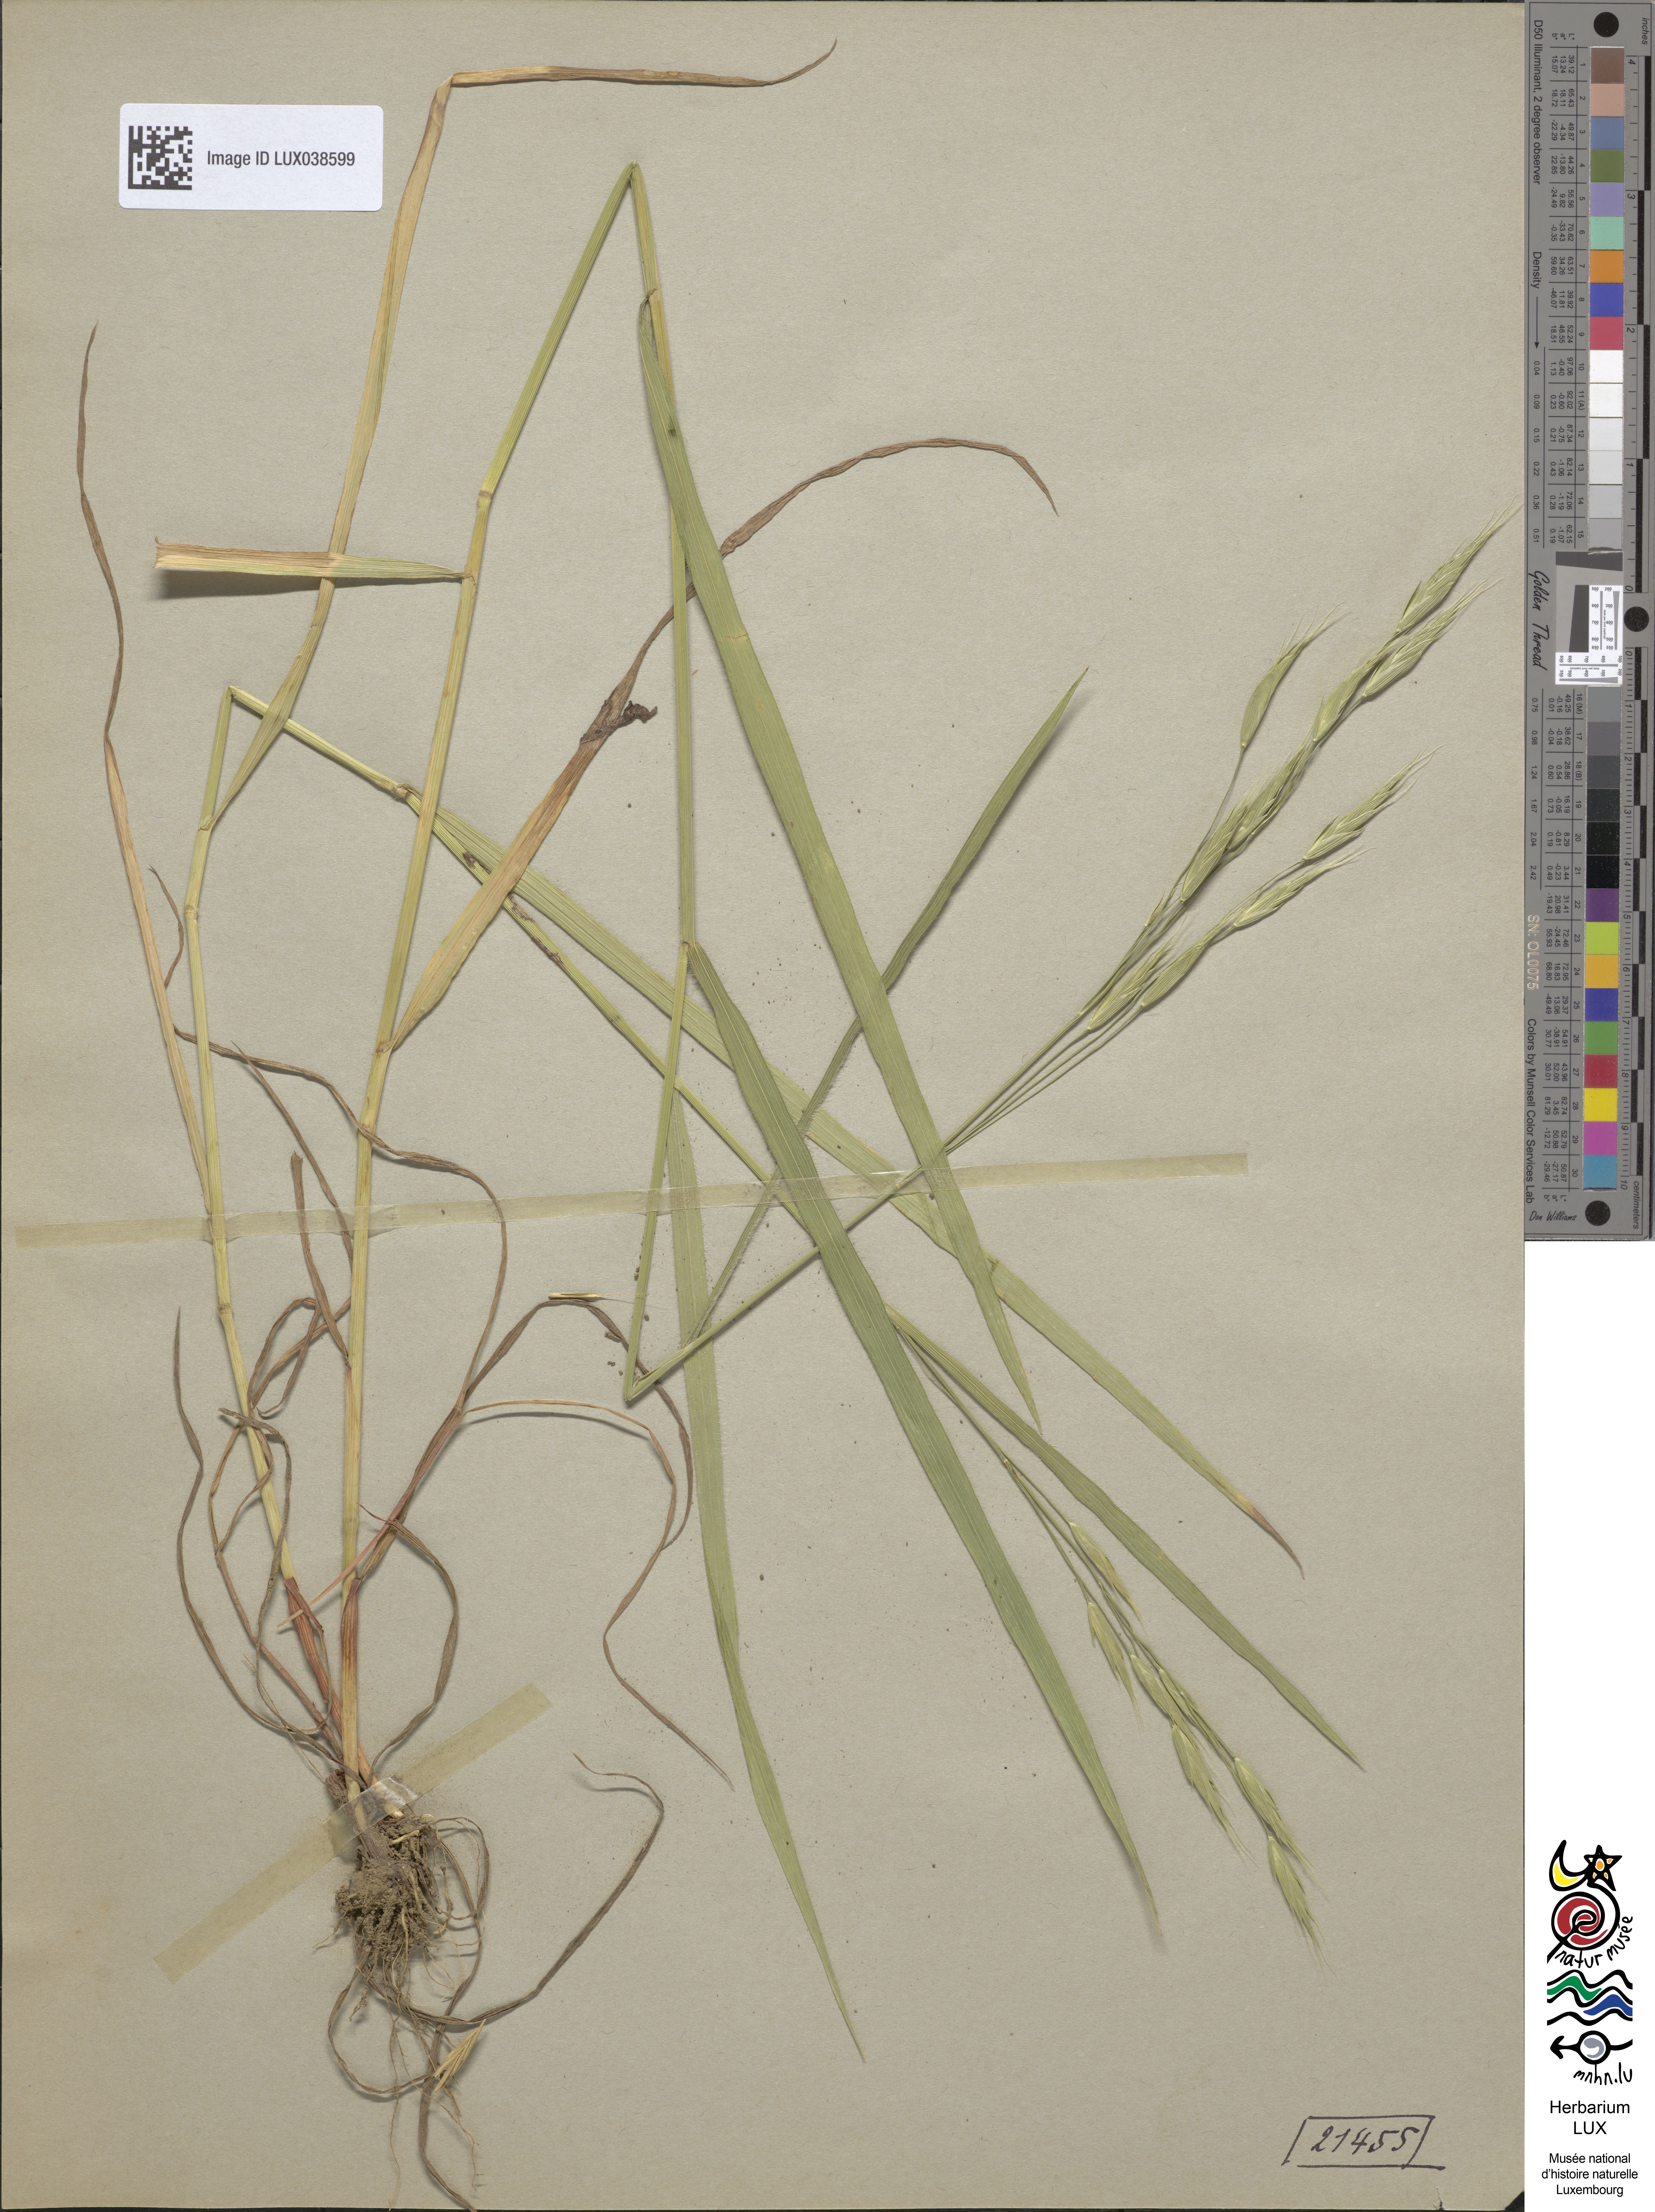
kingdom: Plantae
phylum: Tracheophyta
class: Liliopsida
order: Poales
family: Poaceae
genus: Bromus
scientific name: Bromus bromoideus
